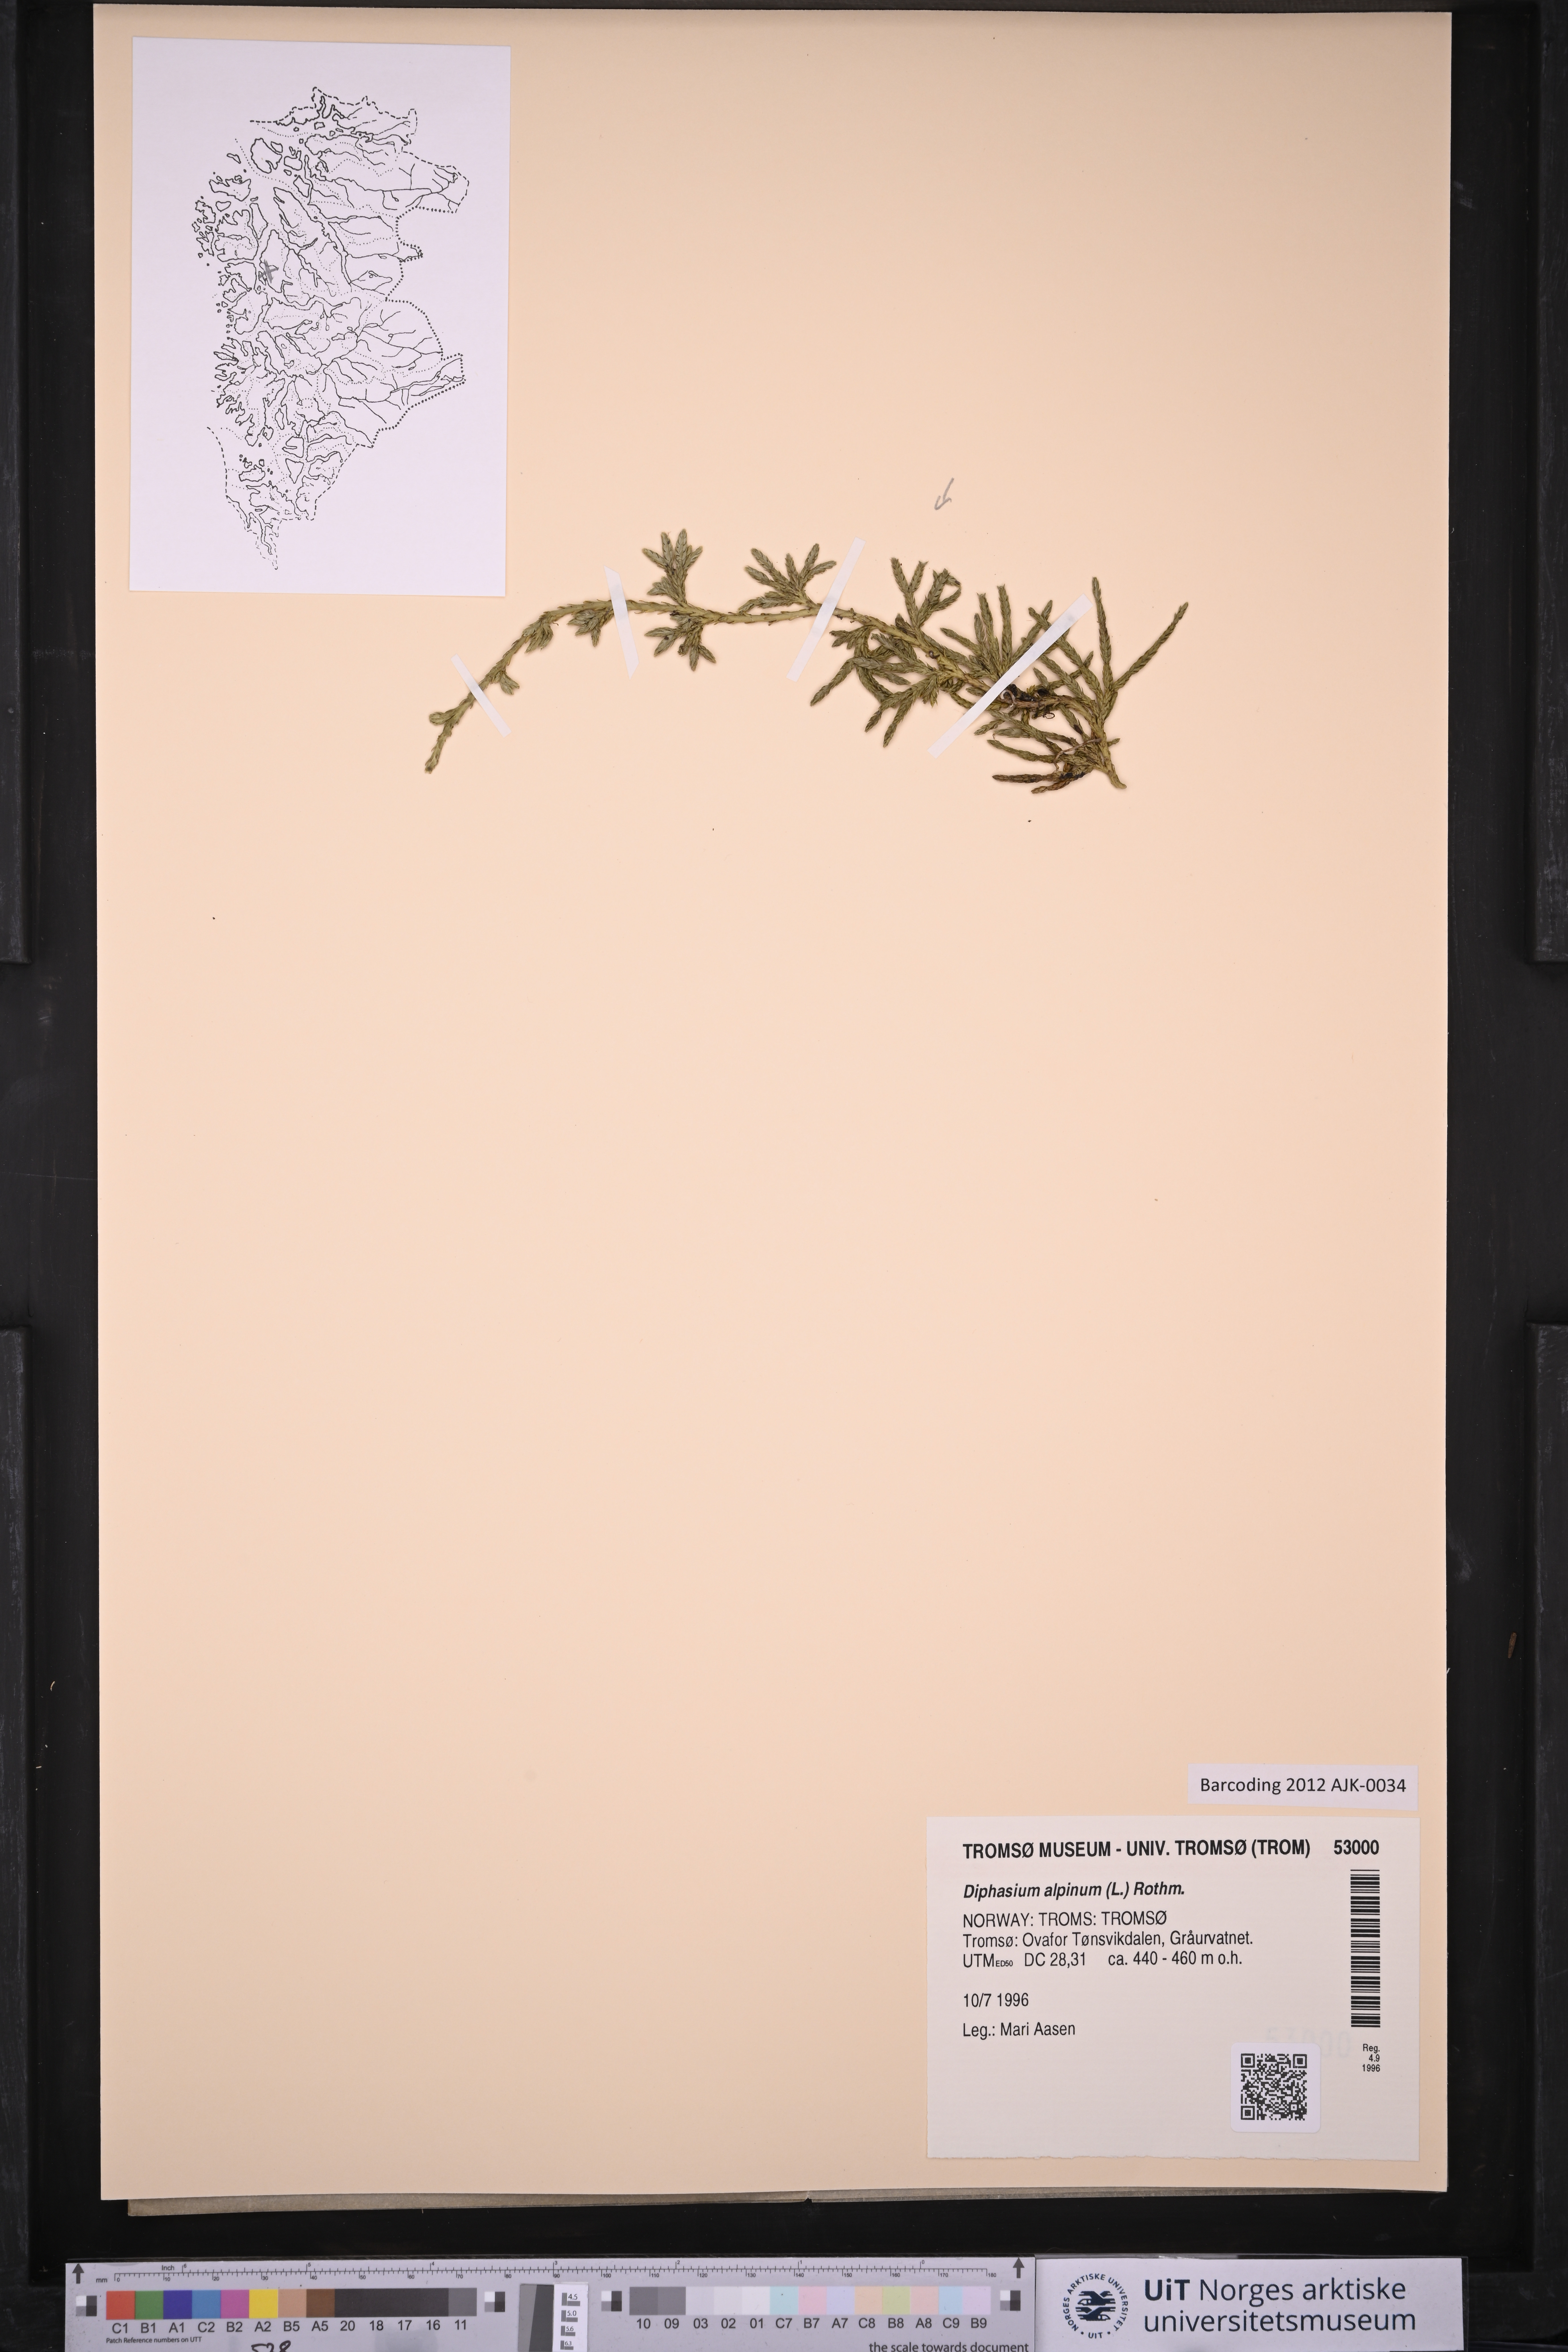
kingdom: Plantae
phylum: Tracheophyta
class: Lycopodiopsida
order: Lycopodiales
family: Lycopodiaceae
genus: Diphasiastrum
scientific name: Diphasiastrum alpinum
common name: Alpine clubmoss
